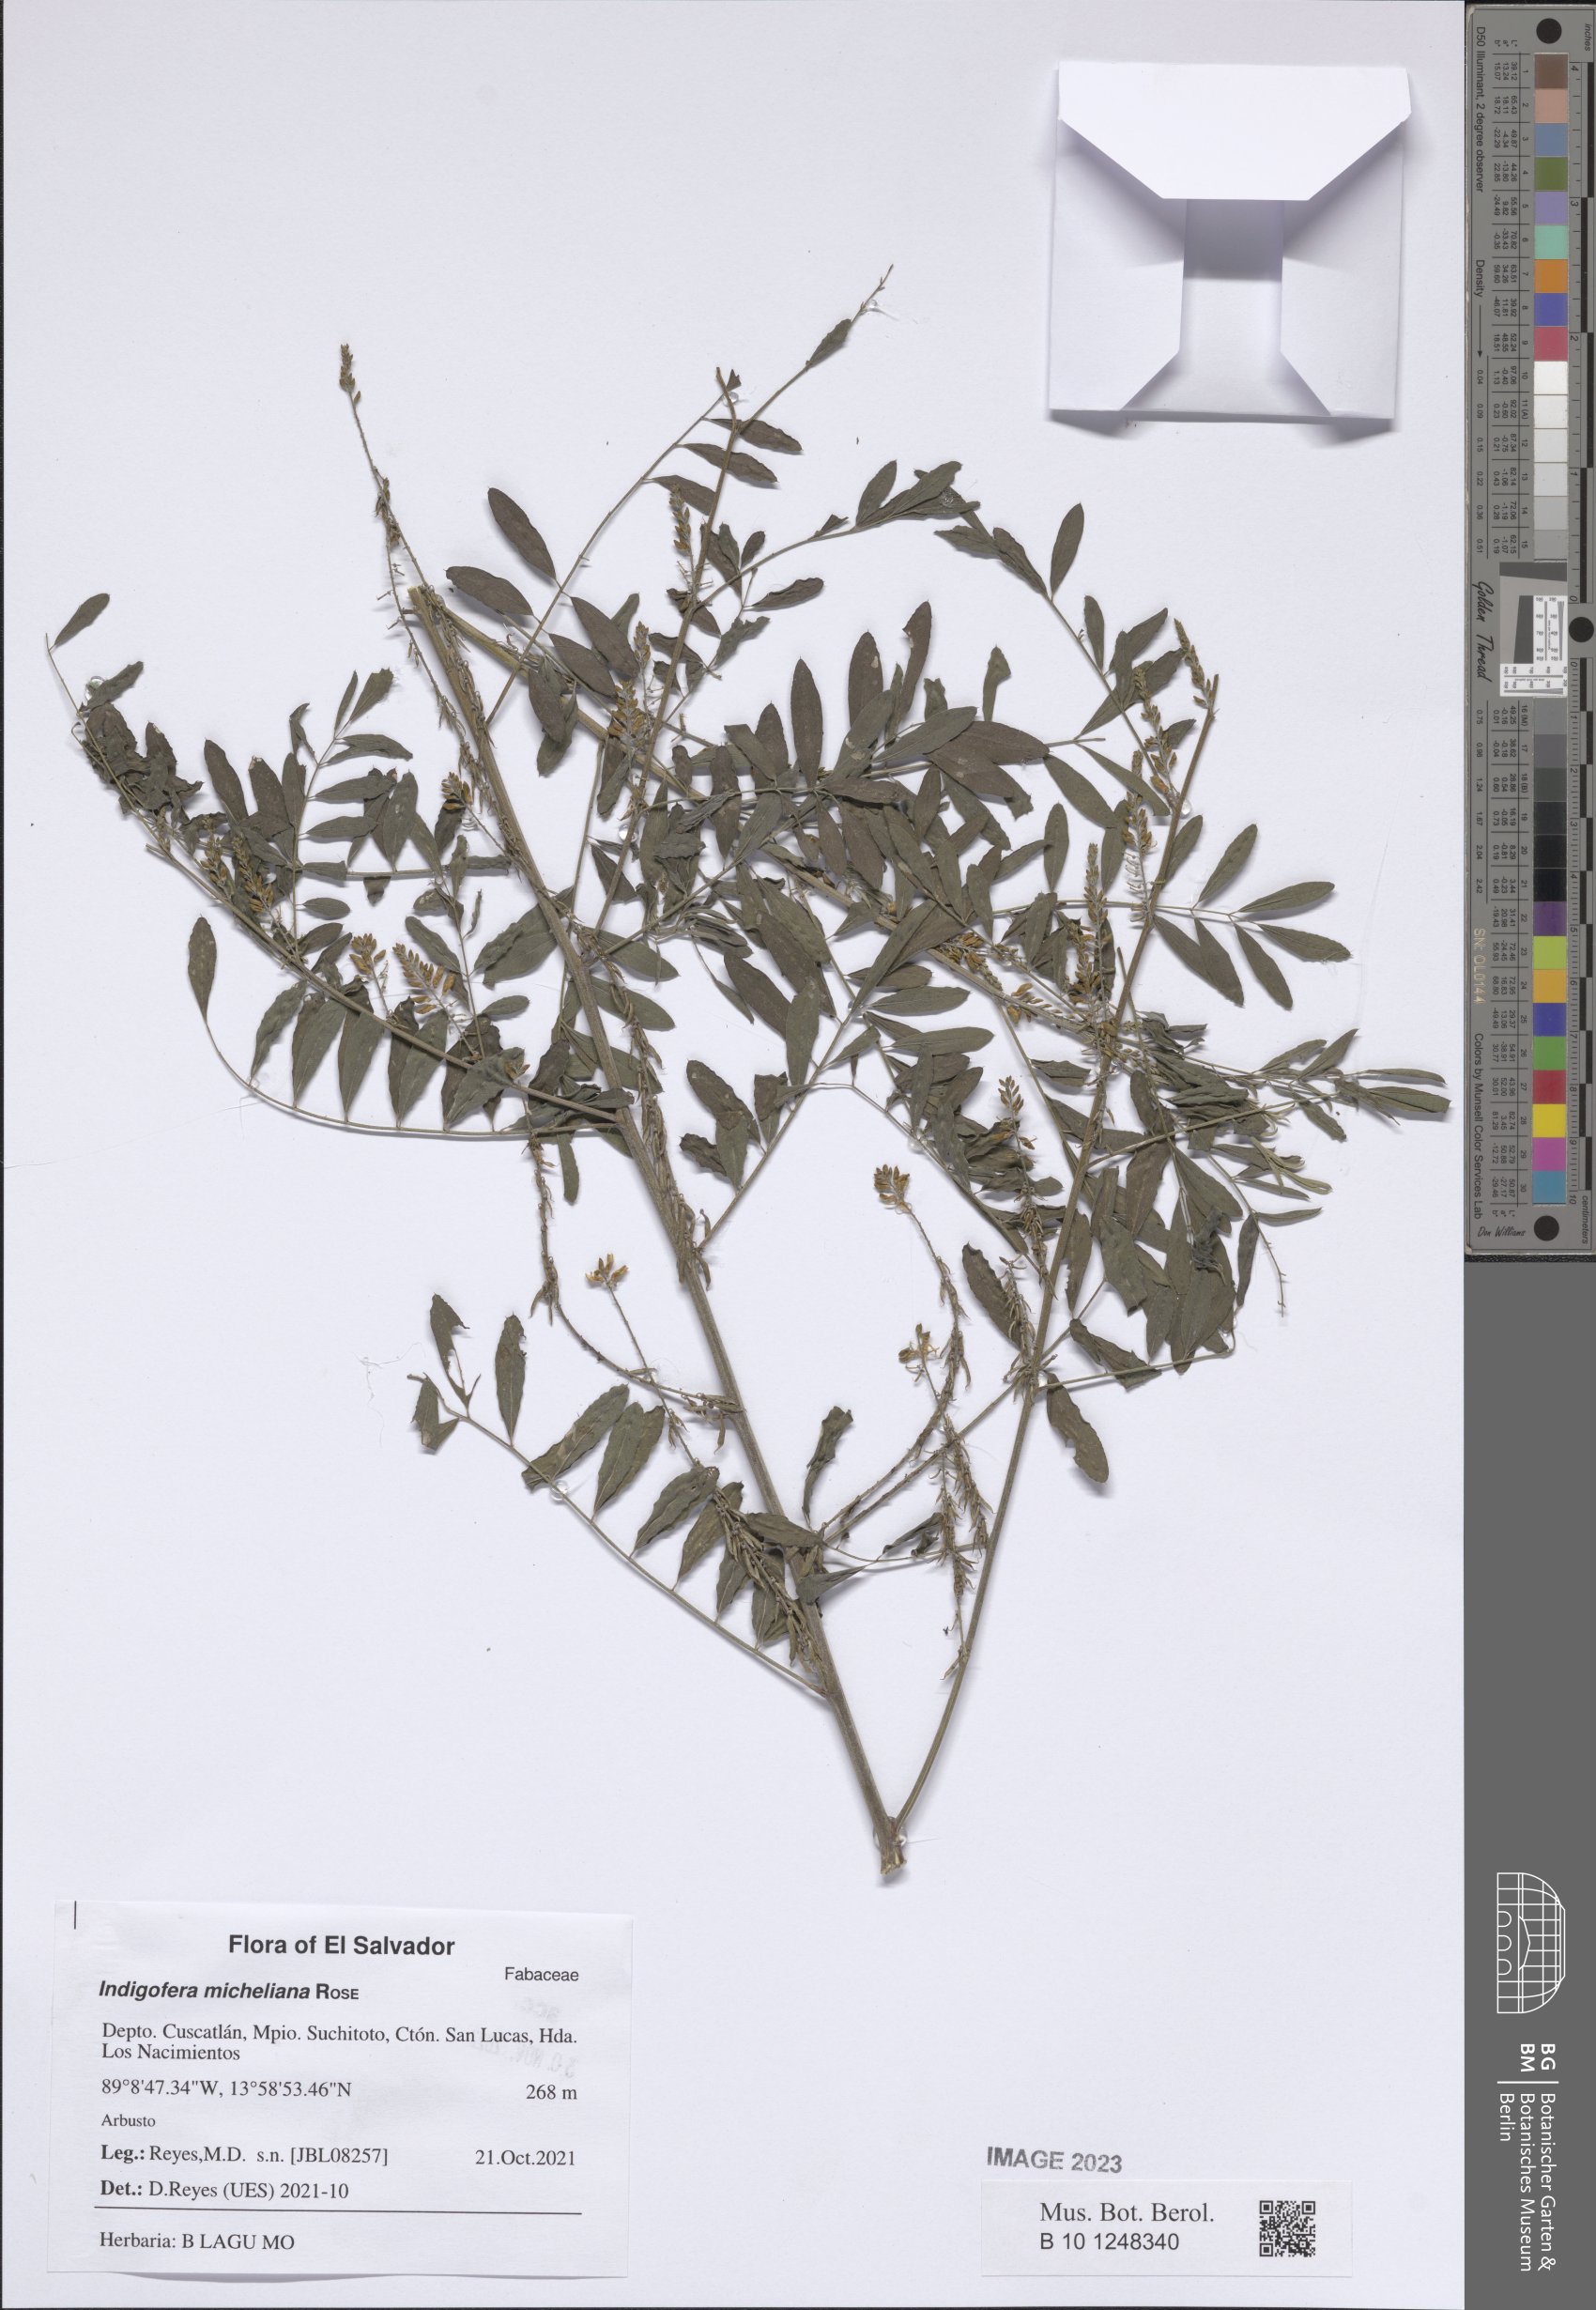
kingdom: Plantae
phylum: Tracheophyta
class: Magnoliopsida
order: Fabales
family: Fabaceae
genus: Indigofera
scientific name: Indigofera micheliana
